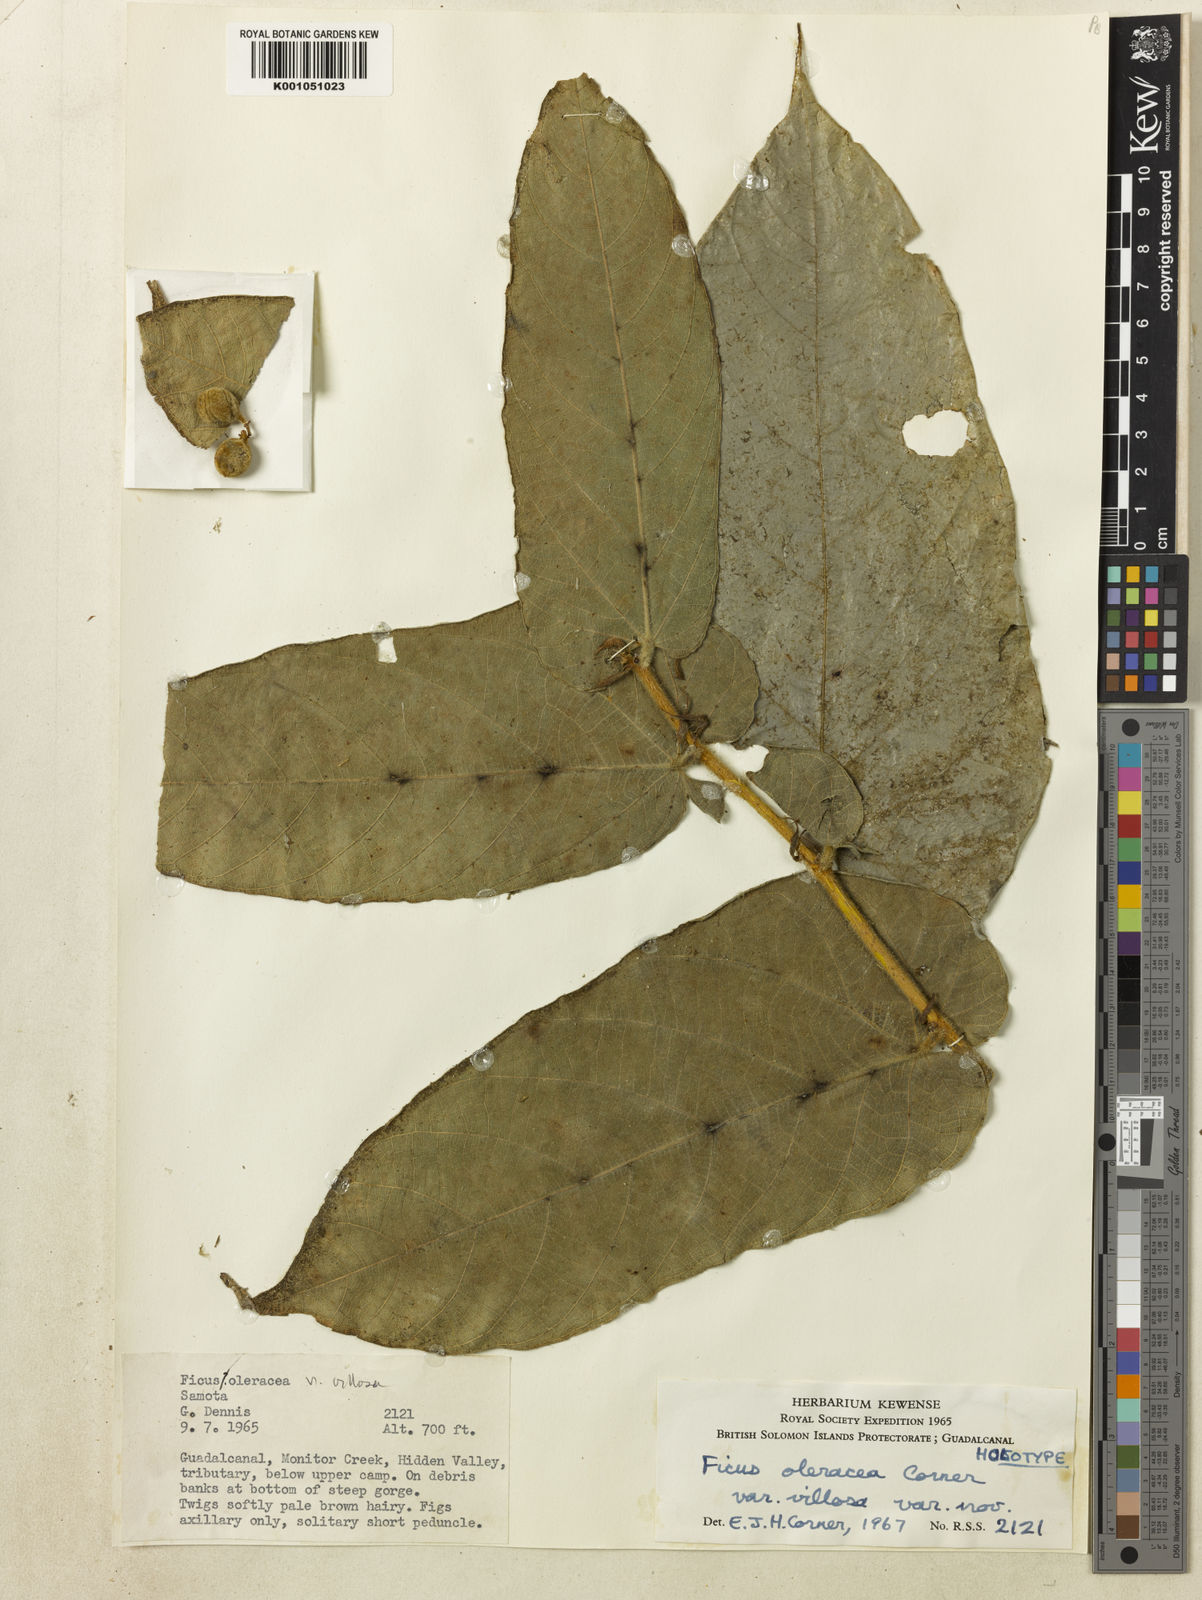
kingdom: Plantae
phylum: Tracheophyta
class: Magnoliopsida
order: Rosales
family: Moraceae
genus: Ficus
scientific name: Ficus oleracea
